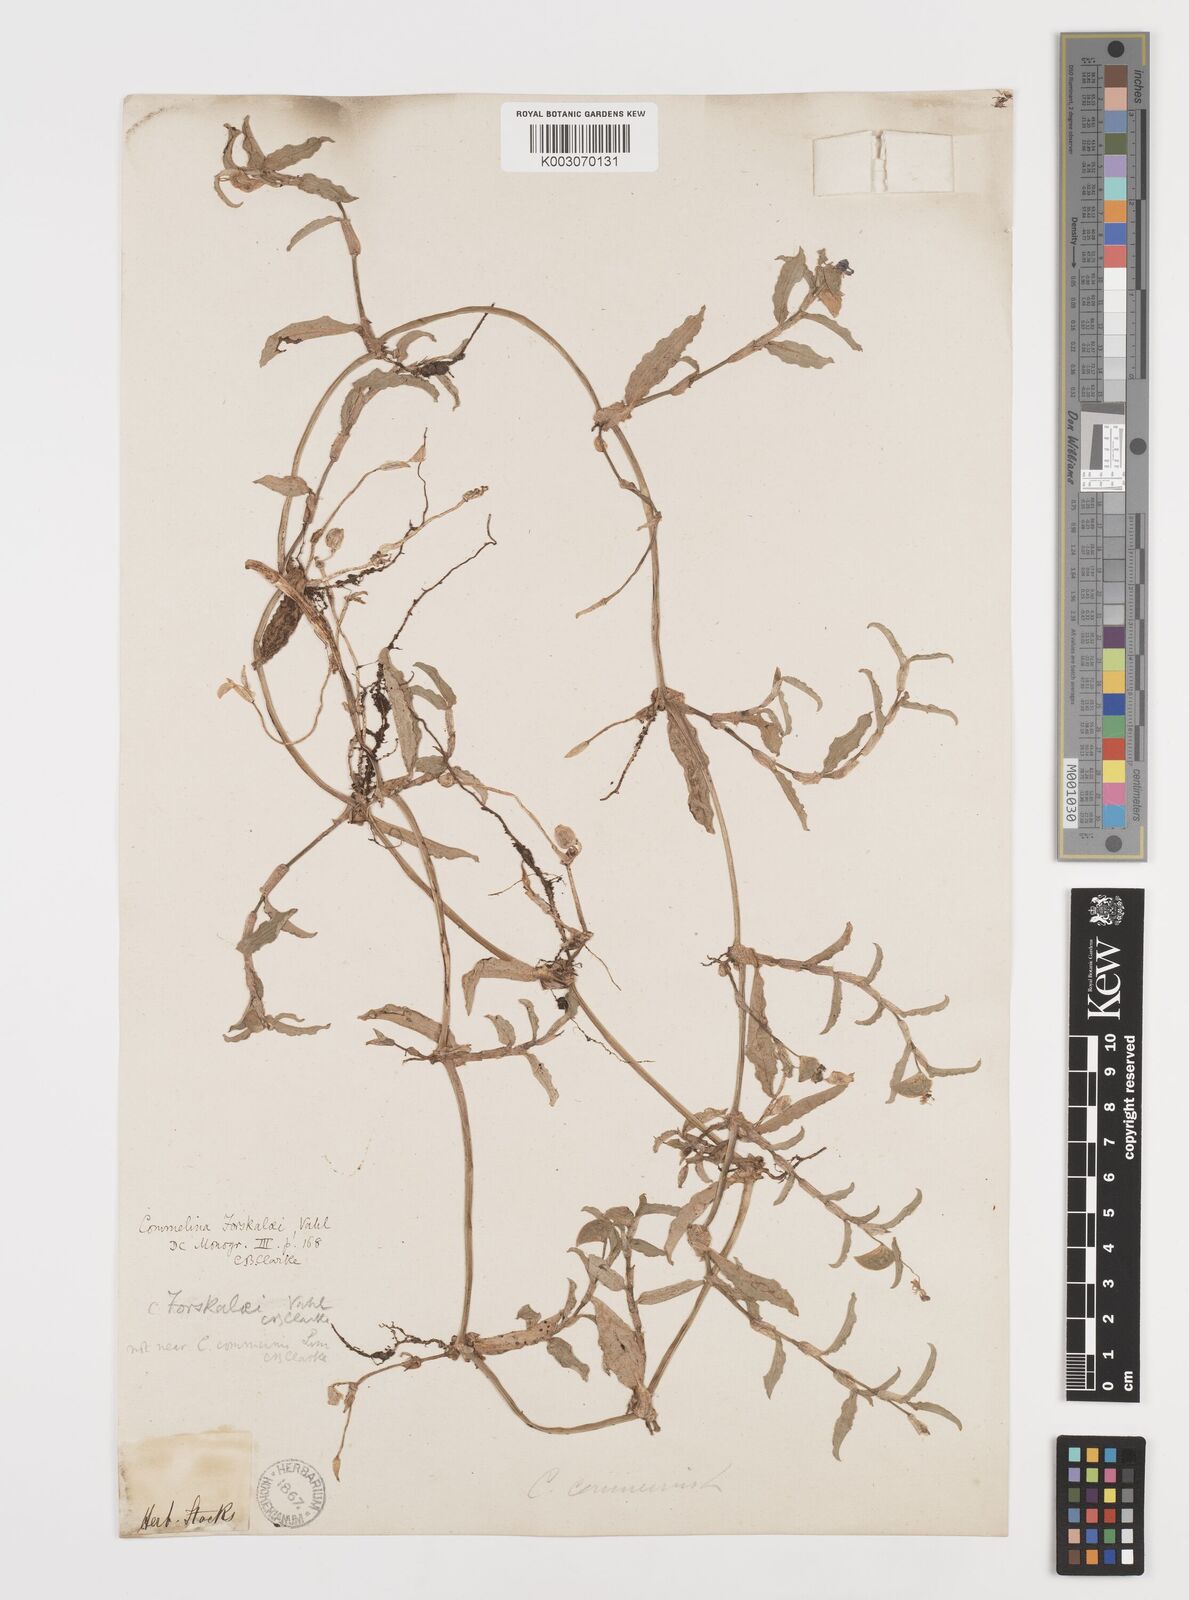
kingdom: Plantae
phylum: Tracheophyta
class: Liliopsida
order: Commelinales
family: Commelinaceae
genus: Commelina
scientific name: Commelina forskaolii
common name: Rat's ear
